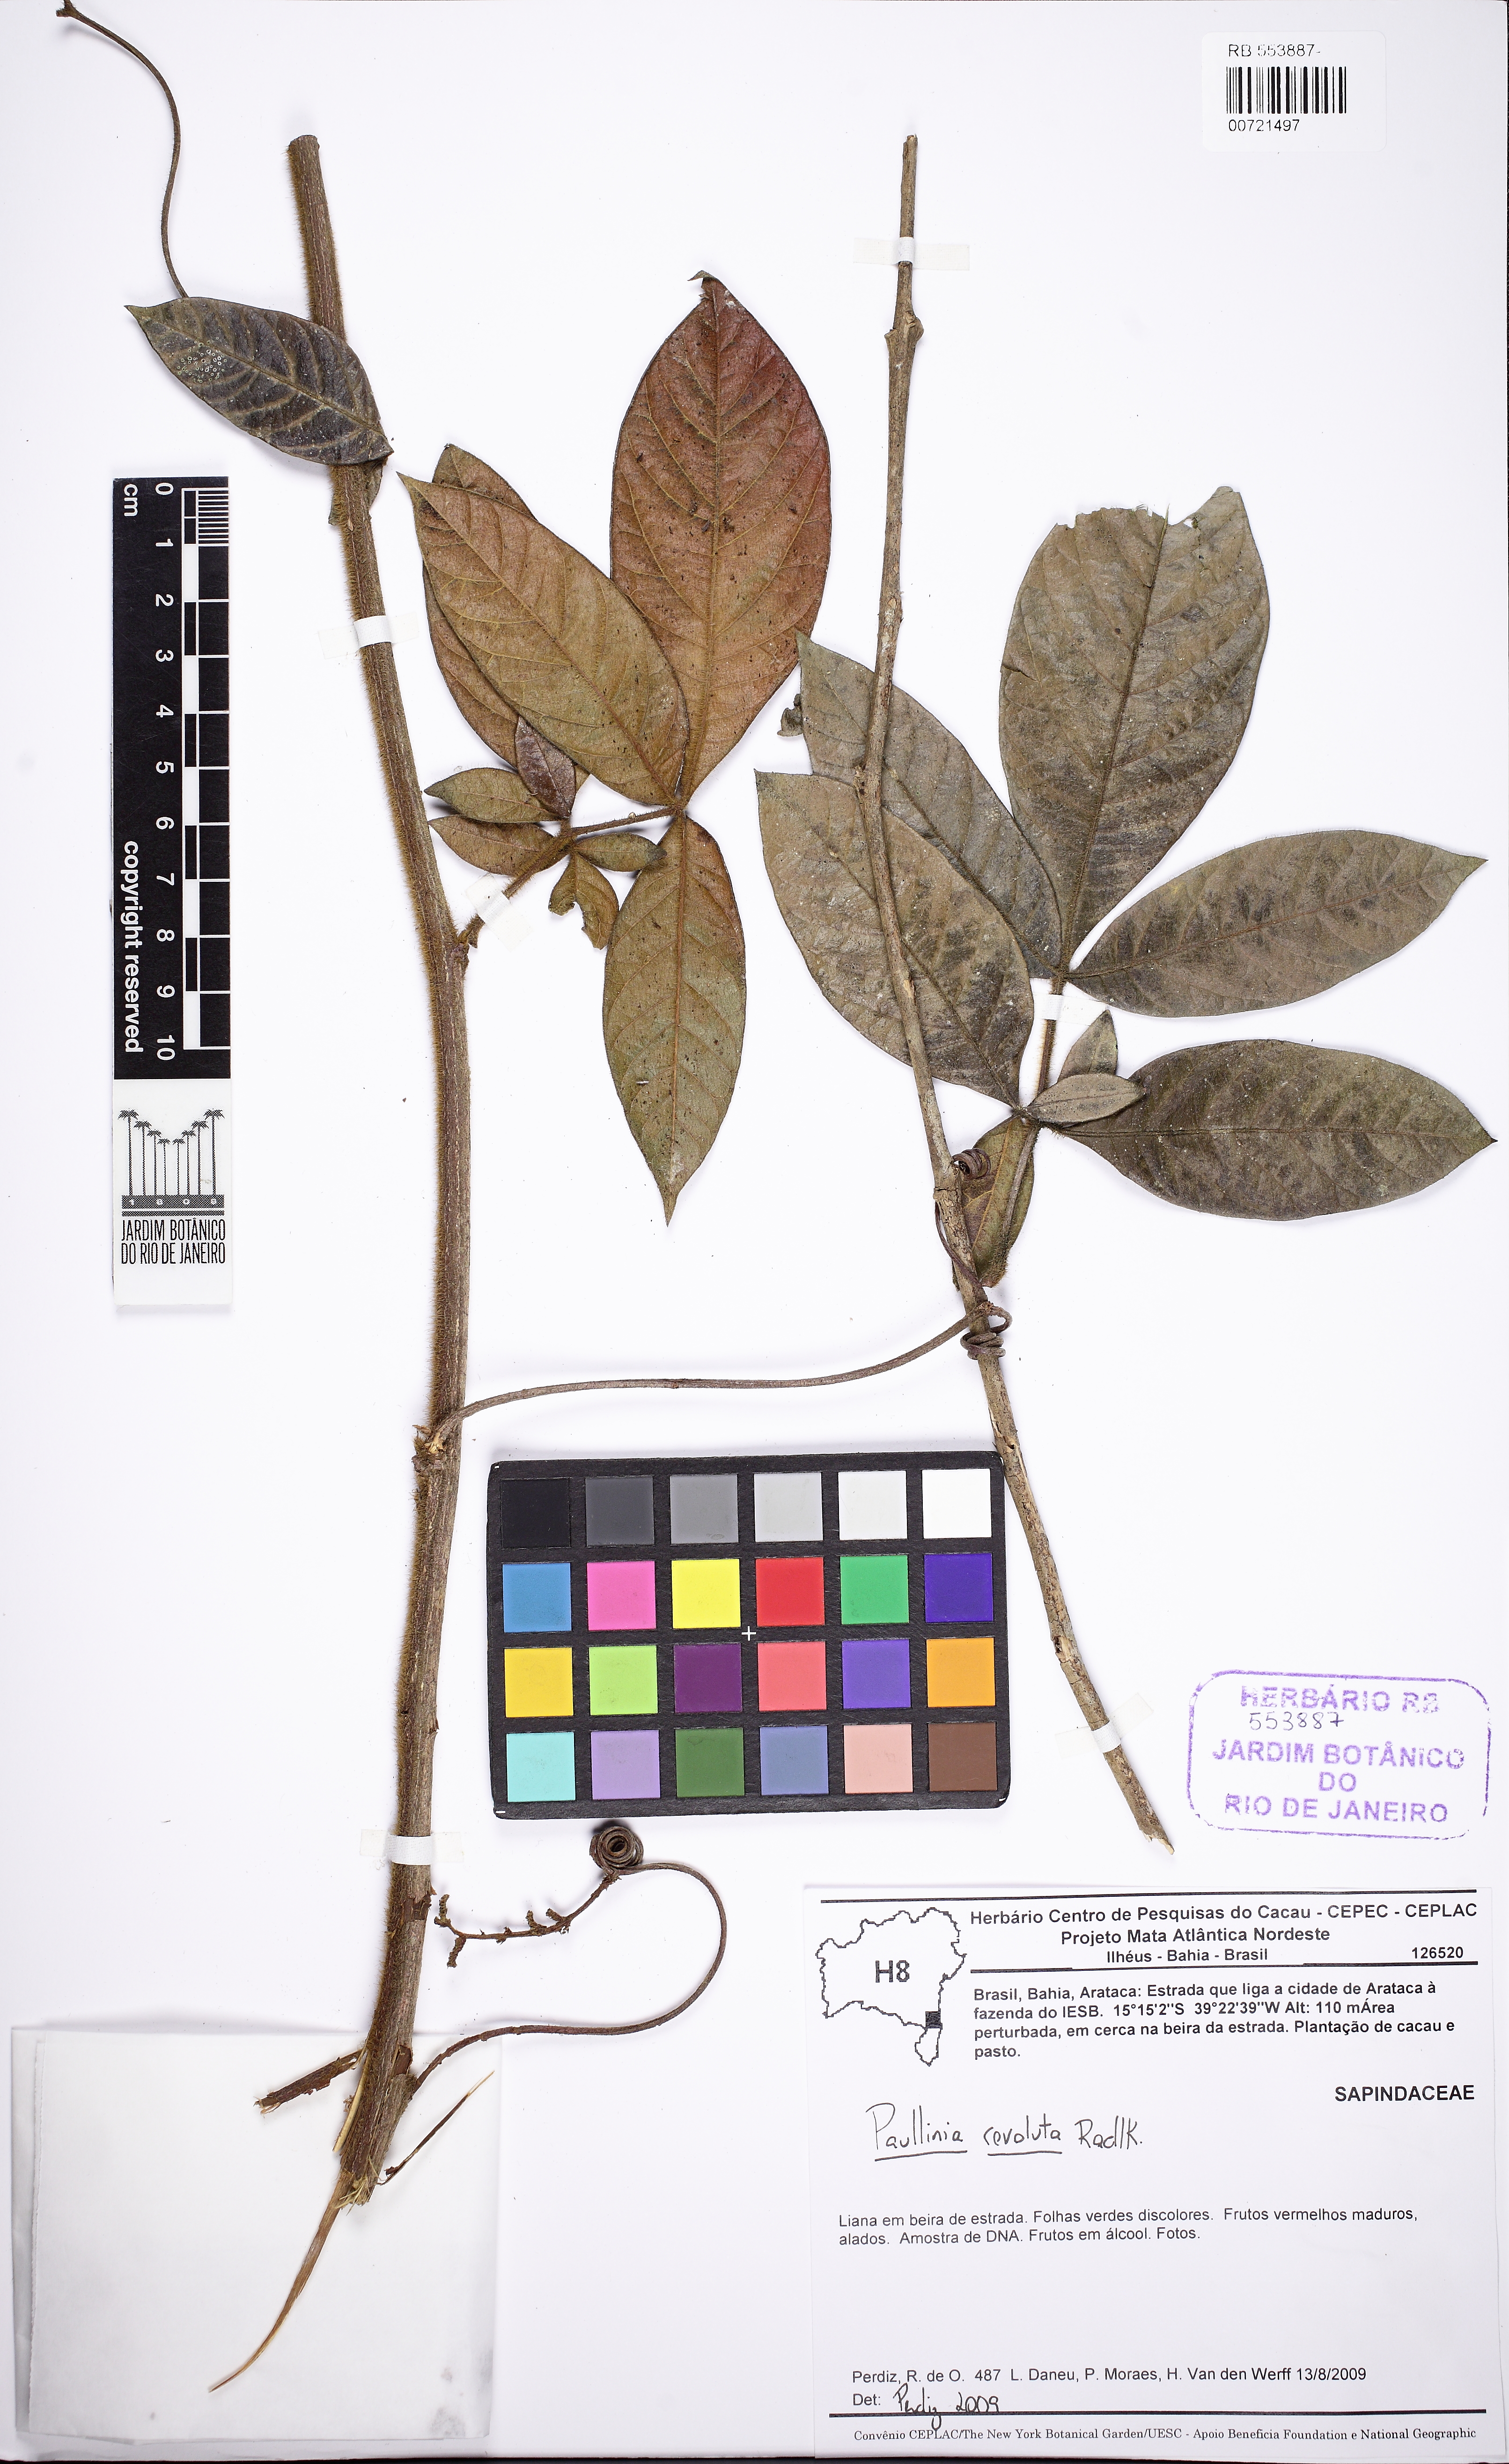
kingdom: Plantae
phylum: Tracheophyta
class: Magnoliopsida
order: Sapindales
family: Sapindaceae
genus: Paullinia
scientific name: Paullinia revoluta
